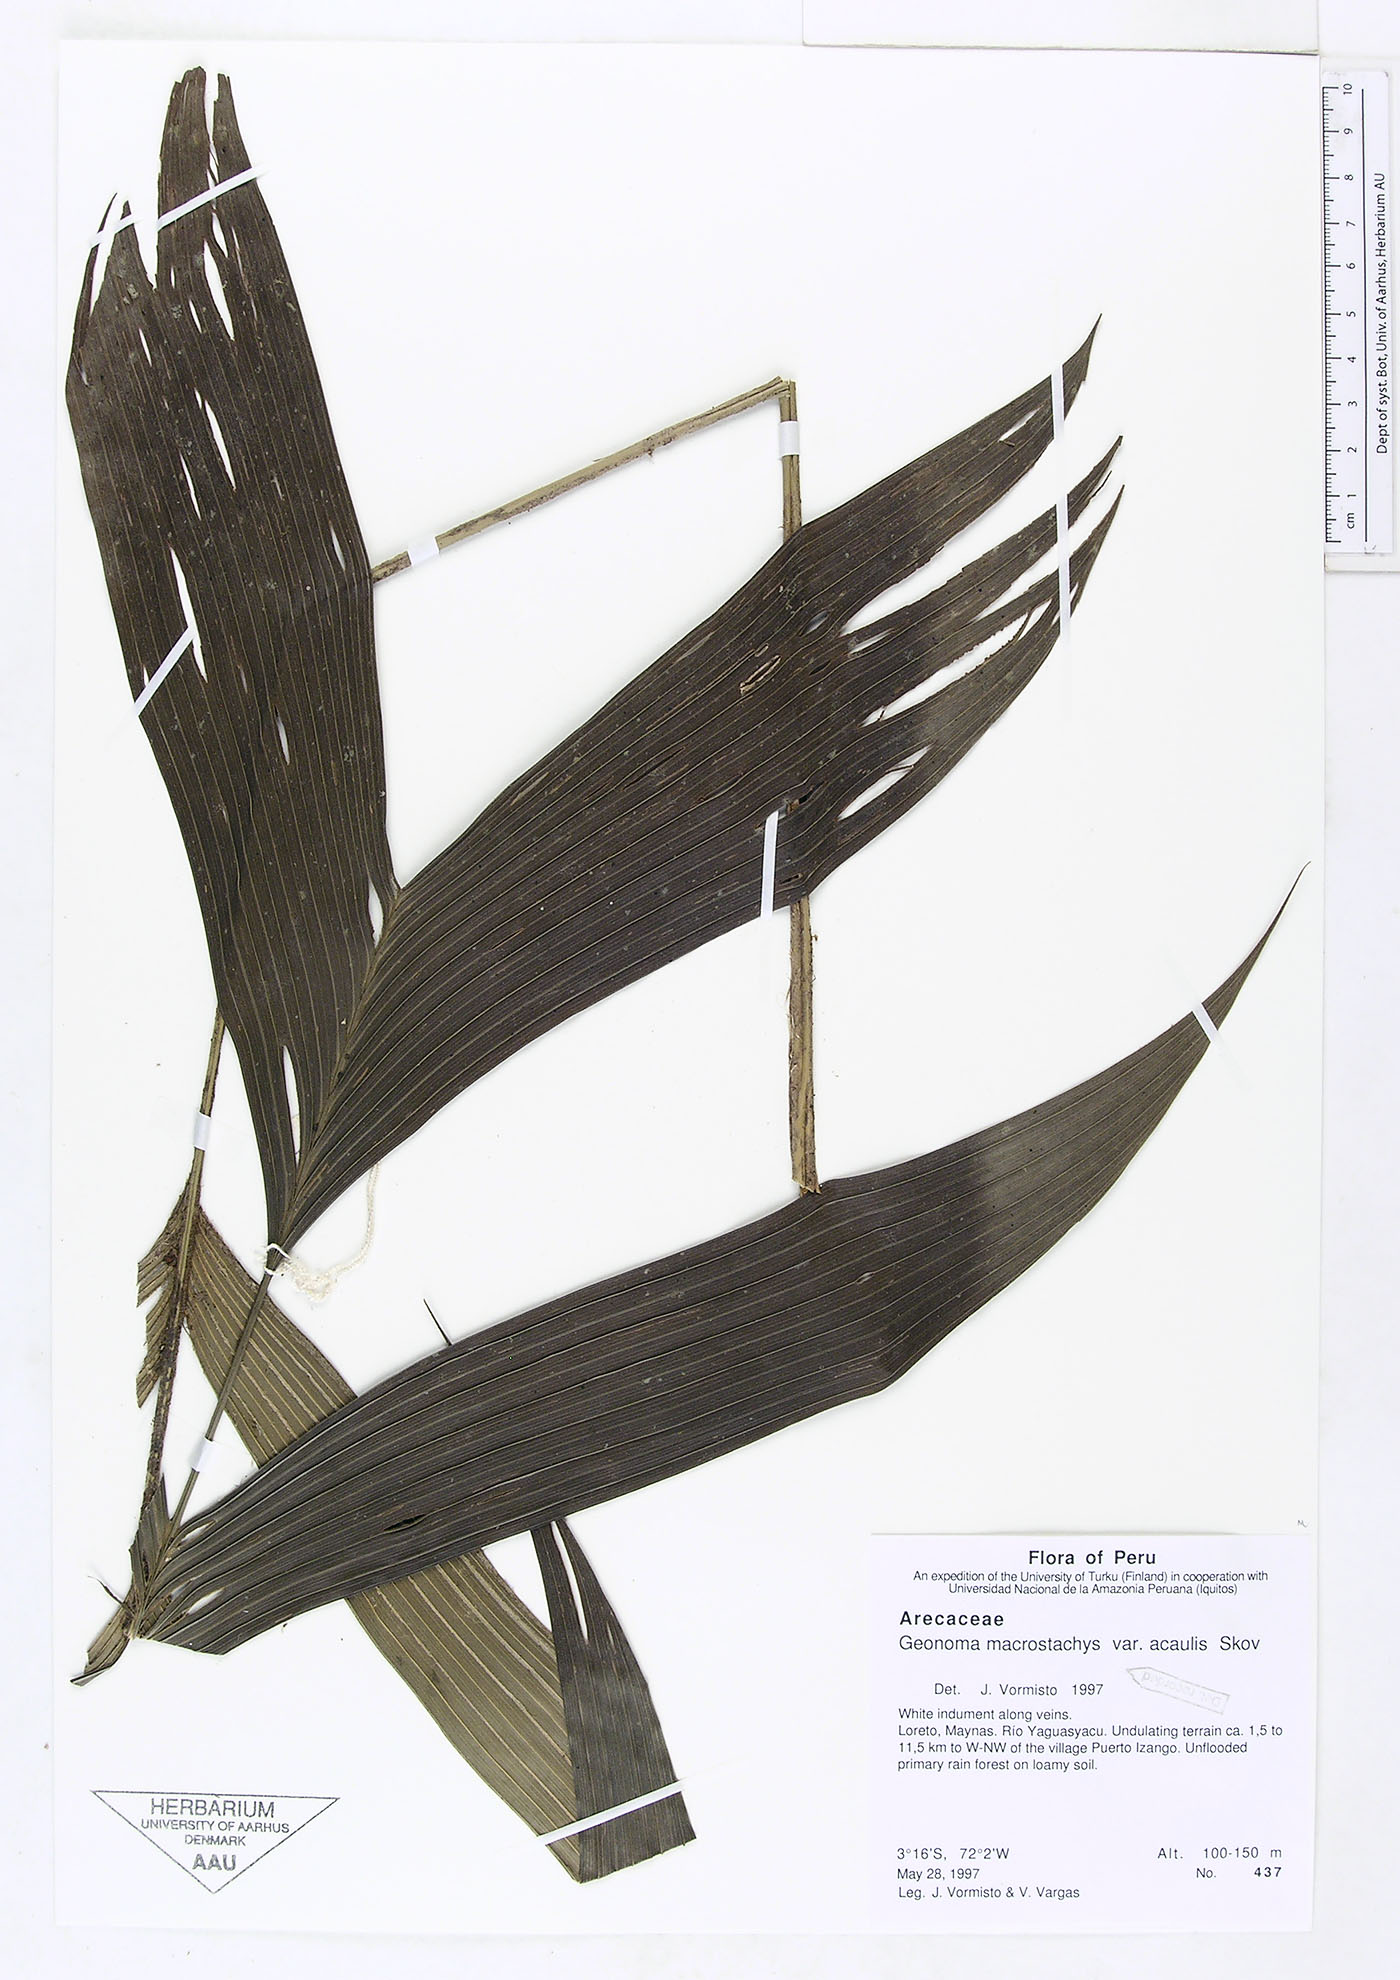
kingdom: Plantae
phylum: Tracheophyta
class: Liliopsida
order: Arecales
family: Arecaceae
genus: Geonoma
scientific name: Geonoma macrostachys
